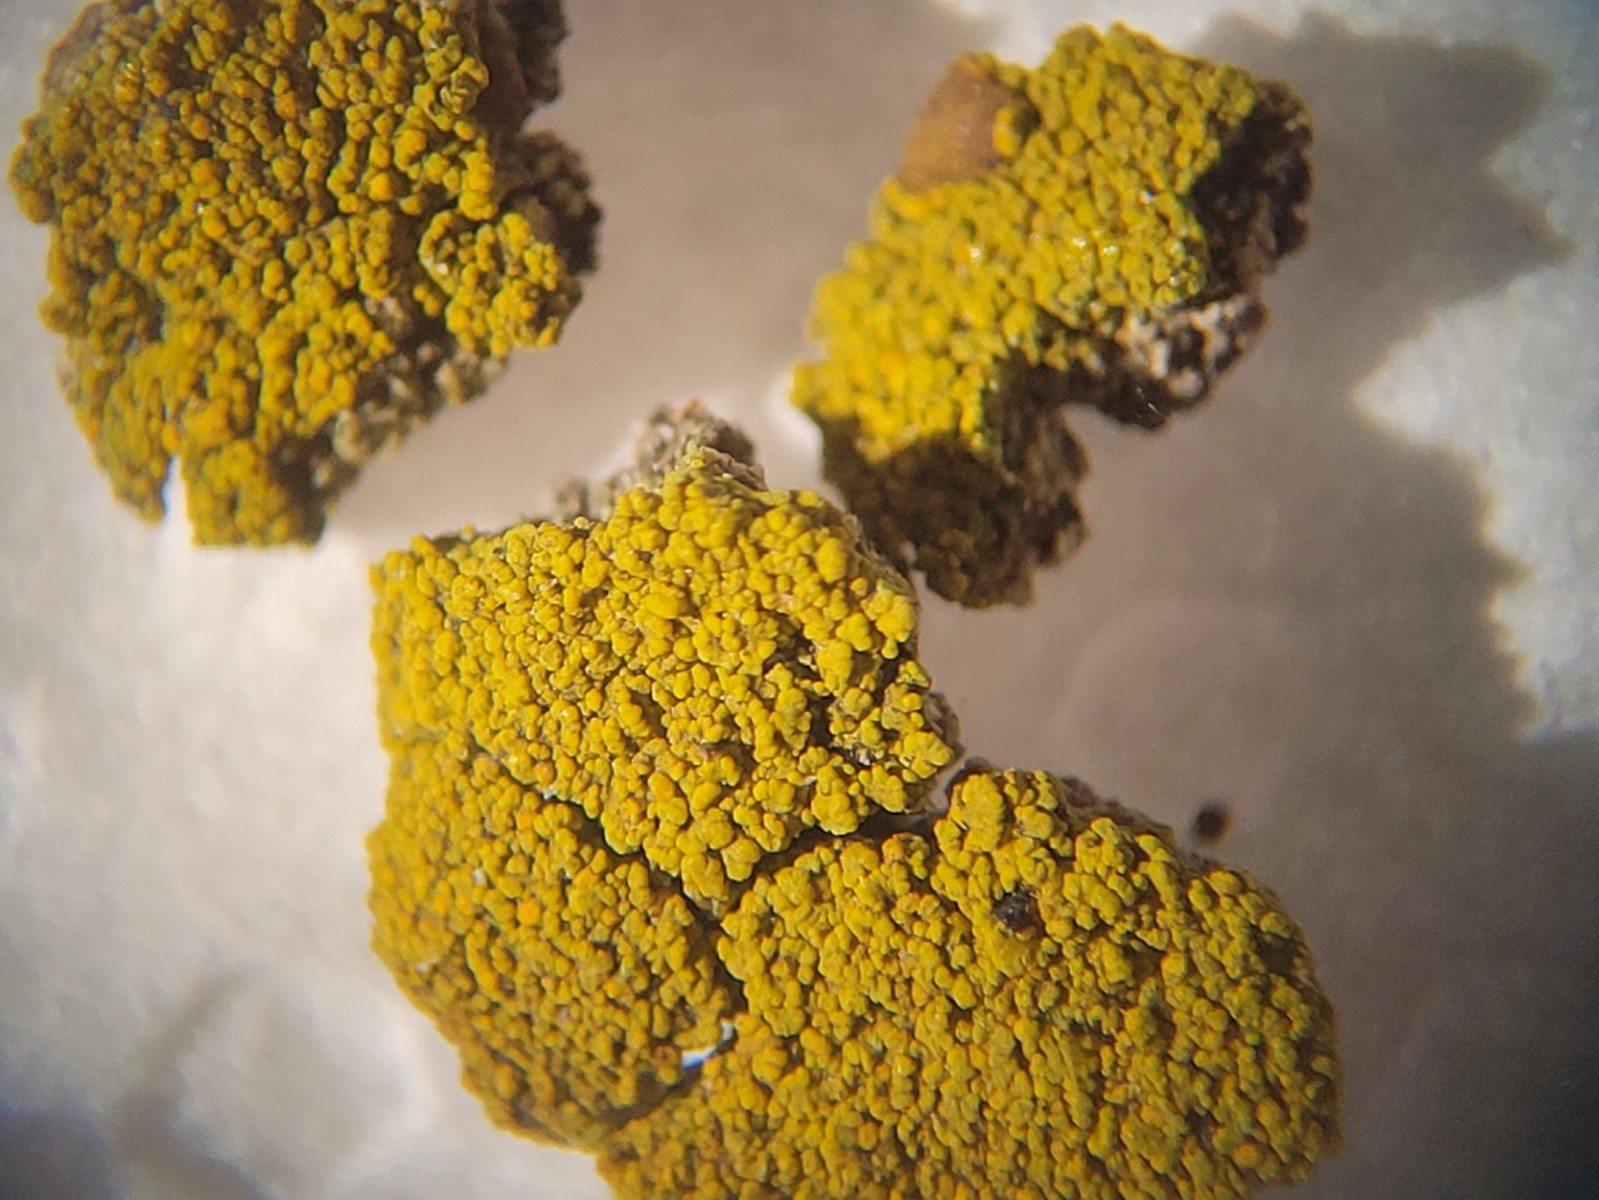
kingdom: Fungi
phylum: Ascomycota
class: Candelariomycetes
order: Candelariales
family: Candelariaceae
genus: Candelariella
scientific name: Candelariella vitellina
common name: almindelig æggeblommelav
